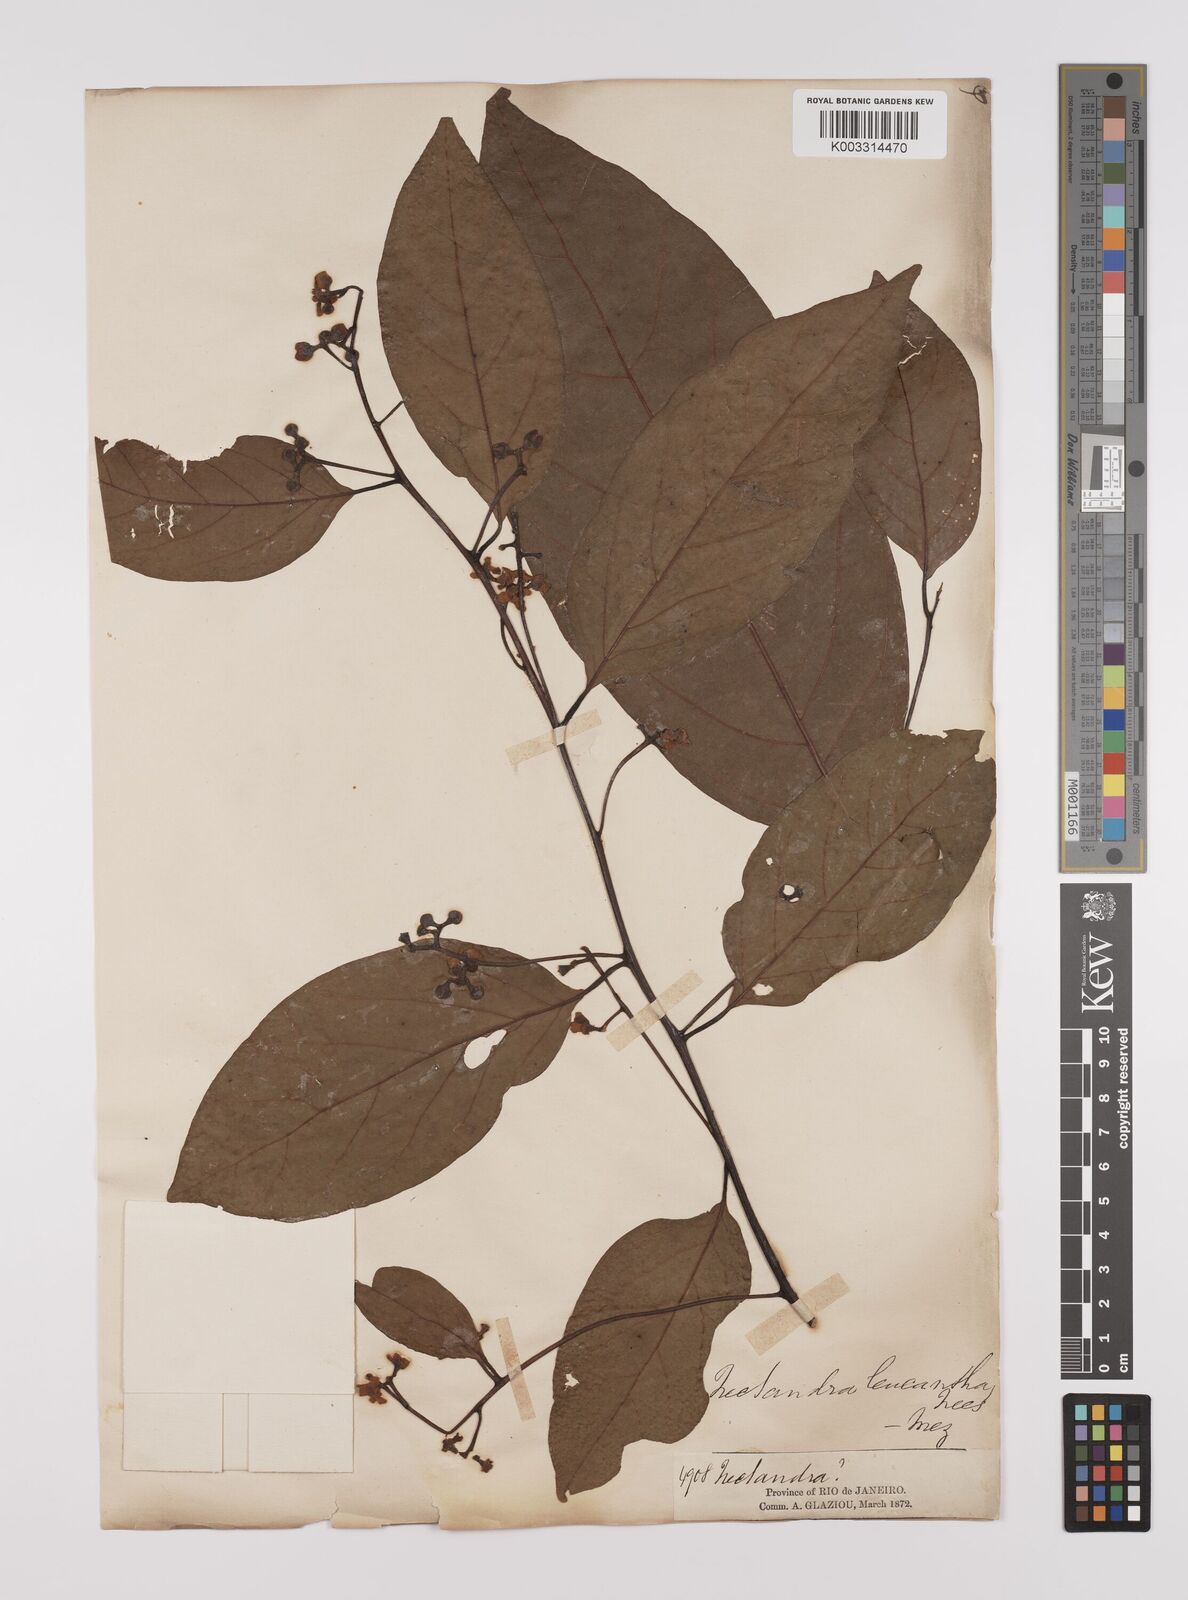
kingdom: Plantae
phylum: Tracheophyta
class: Magnoliopsida
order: Laurales
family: Lauraceae
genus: Nectandra
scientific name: Nectandra leucantha
